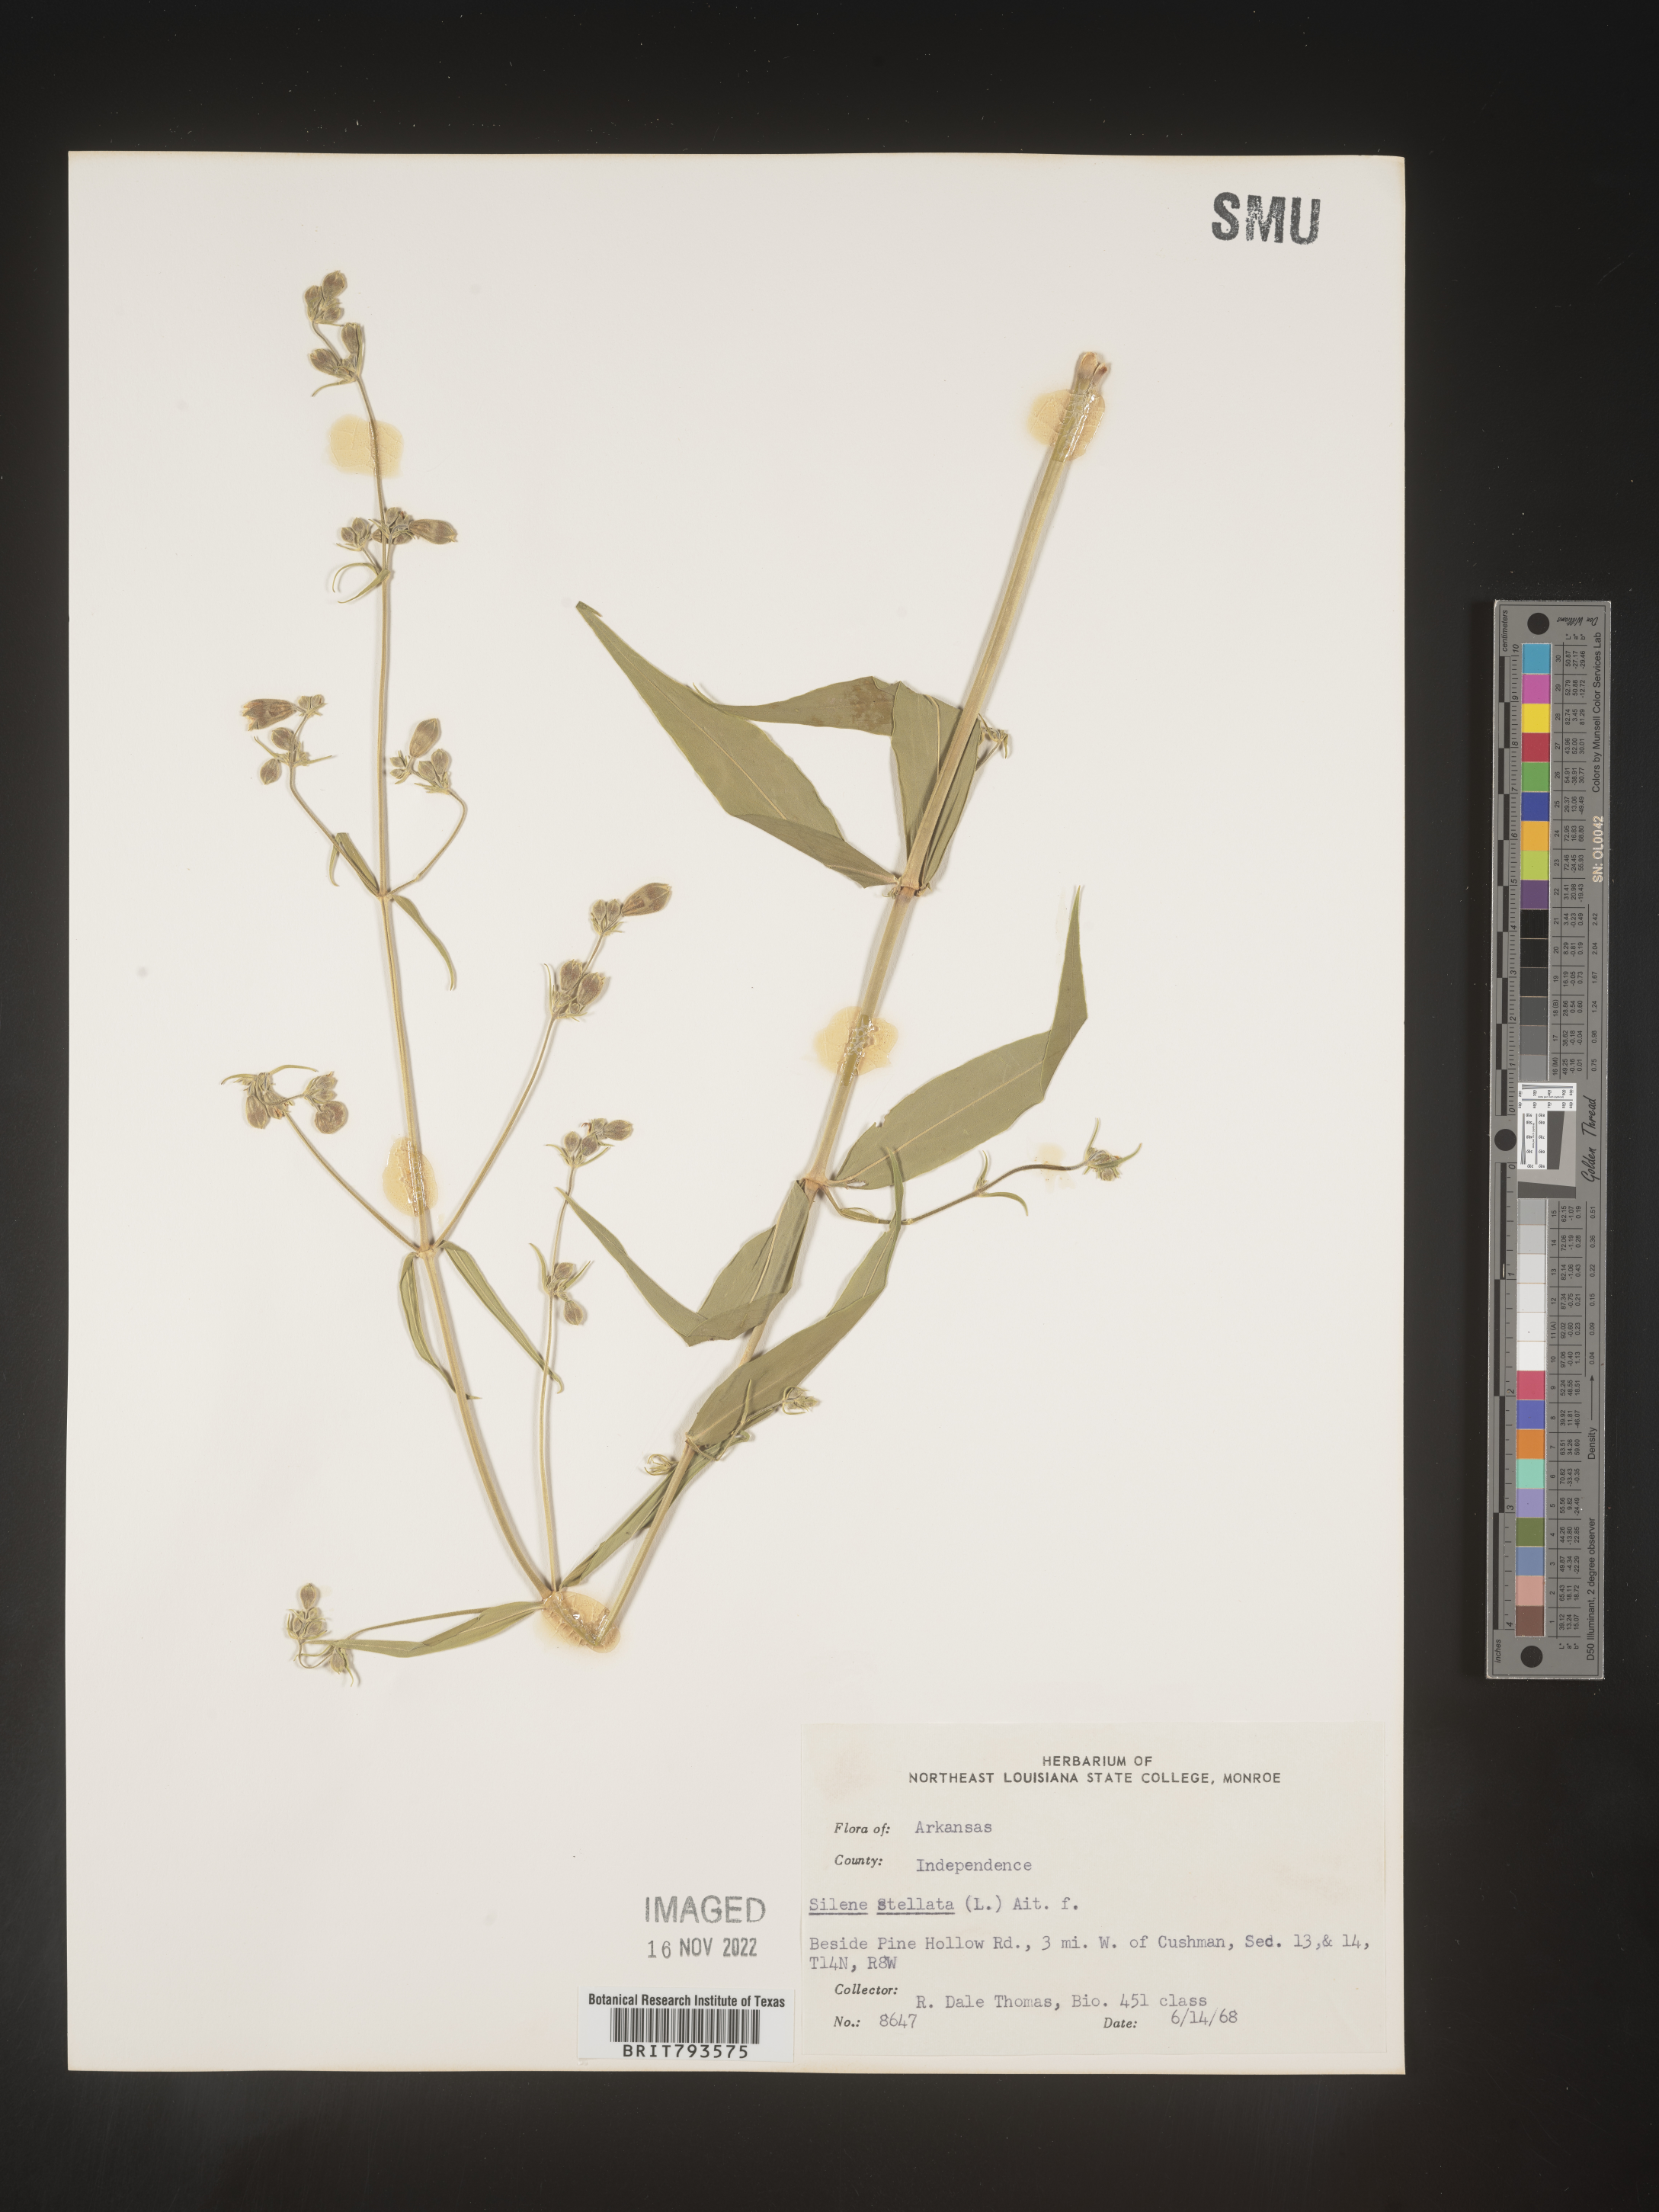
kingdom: Plantae
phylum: Tracheophyta
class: Magnoliopsida
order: Caryophyllales
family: Caryophyllaceae
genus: Silene
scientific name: Silene stellata
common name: Starry campion
